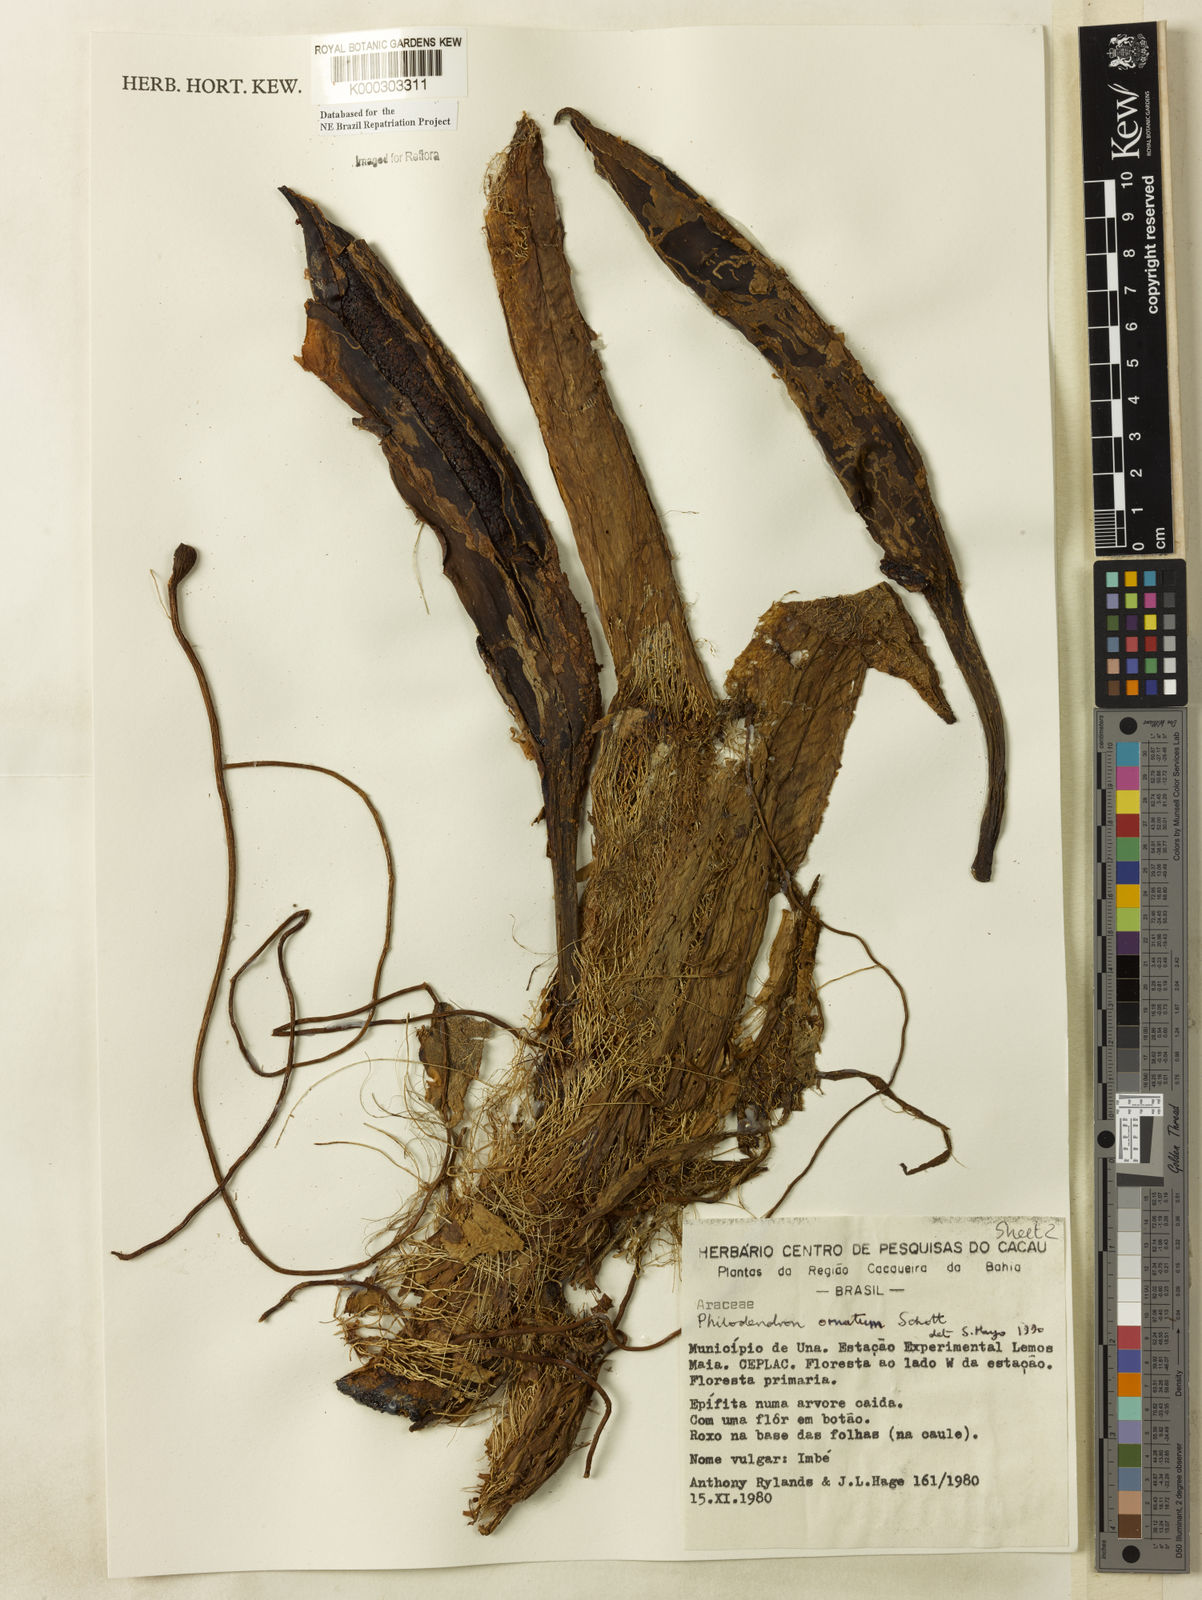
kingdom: Plantae
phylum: Tracheophyta
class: Liliopsida
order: Alismatales
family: Araceae
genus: Philodendron
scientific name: Philodendron ornatum
